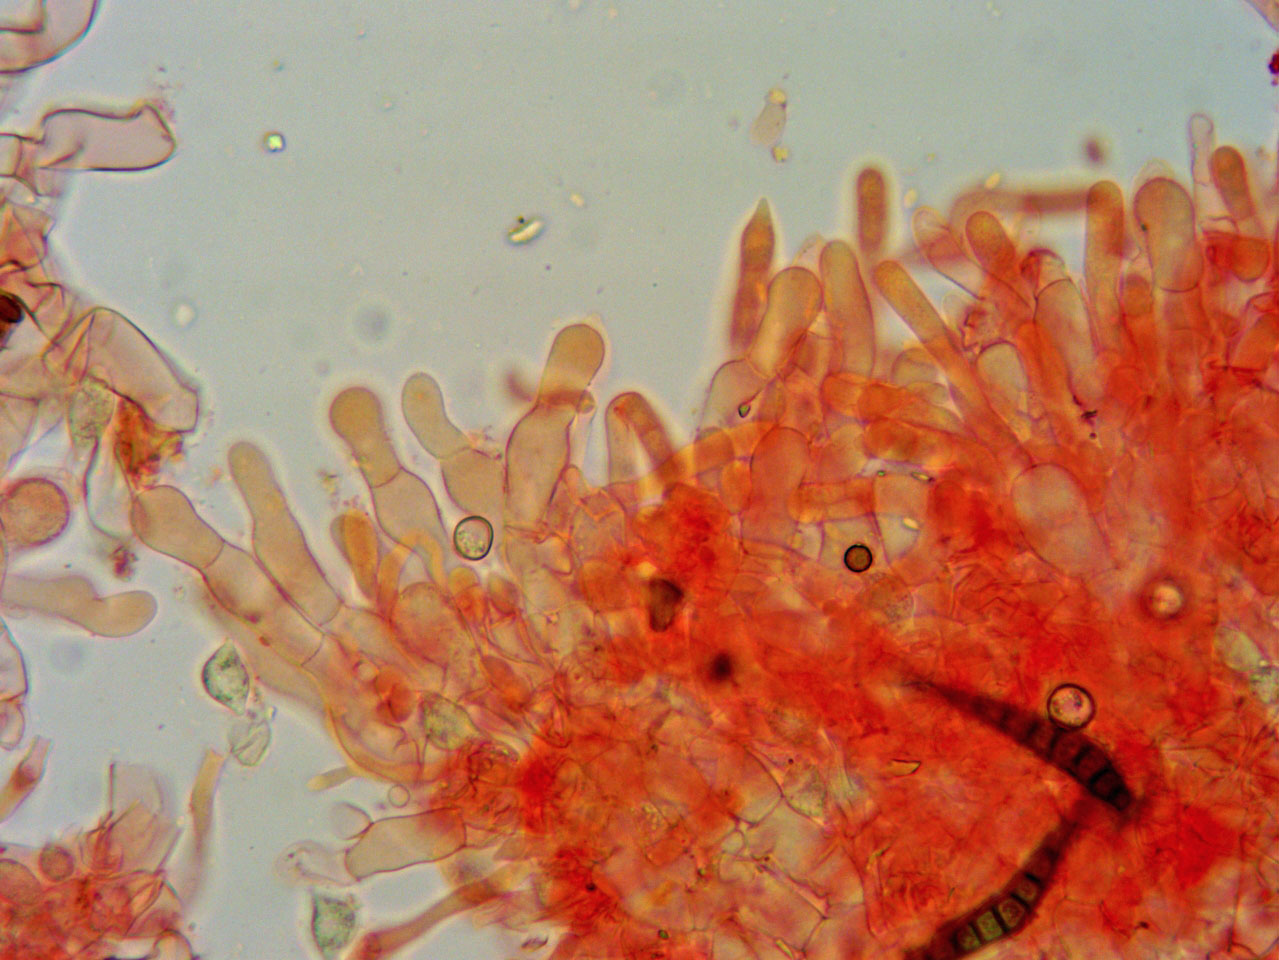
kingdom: Fungi
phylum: Basidiomycota
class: Agaricomycetes
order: Cantharellales
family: Ceratobasidiaceae
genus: Rhizoctonia
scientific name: Rhizoctonia fusispora
